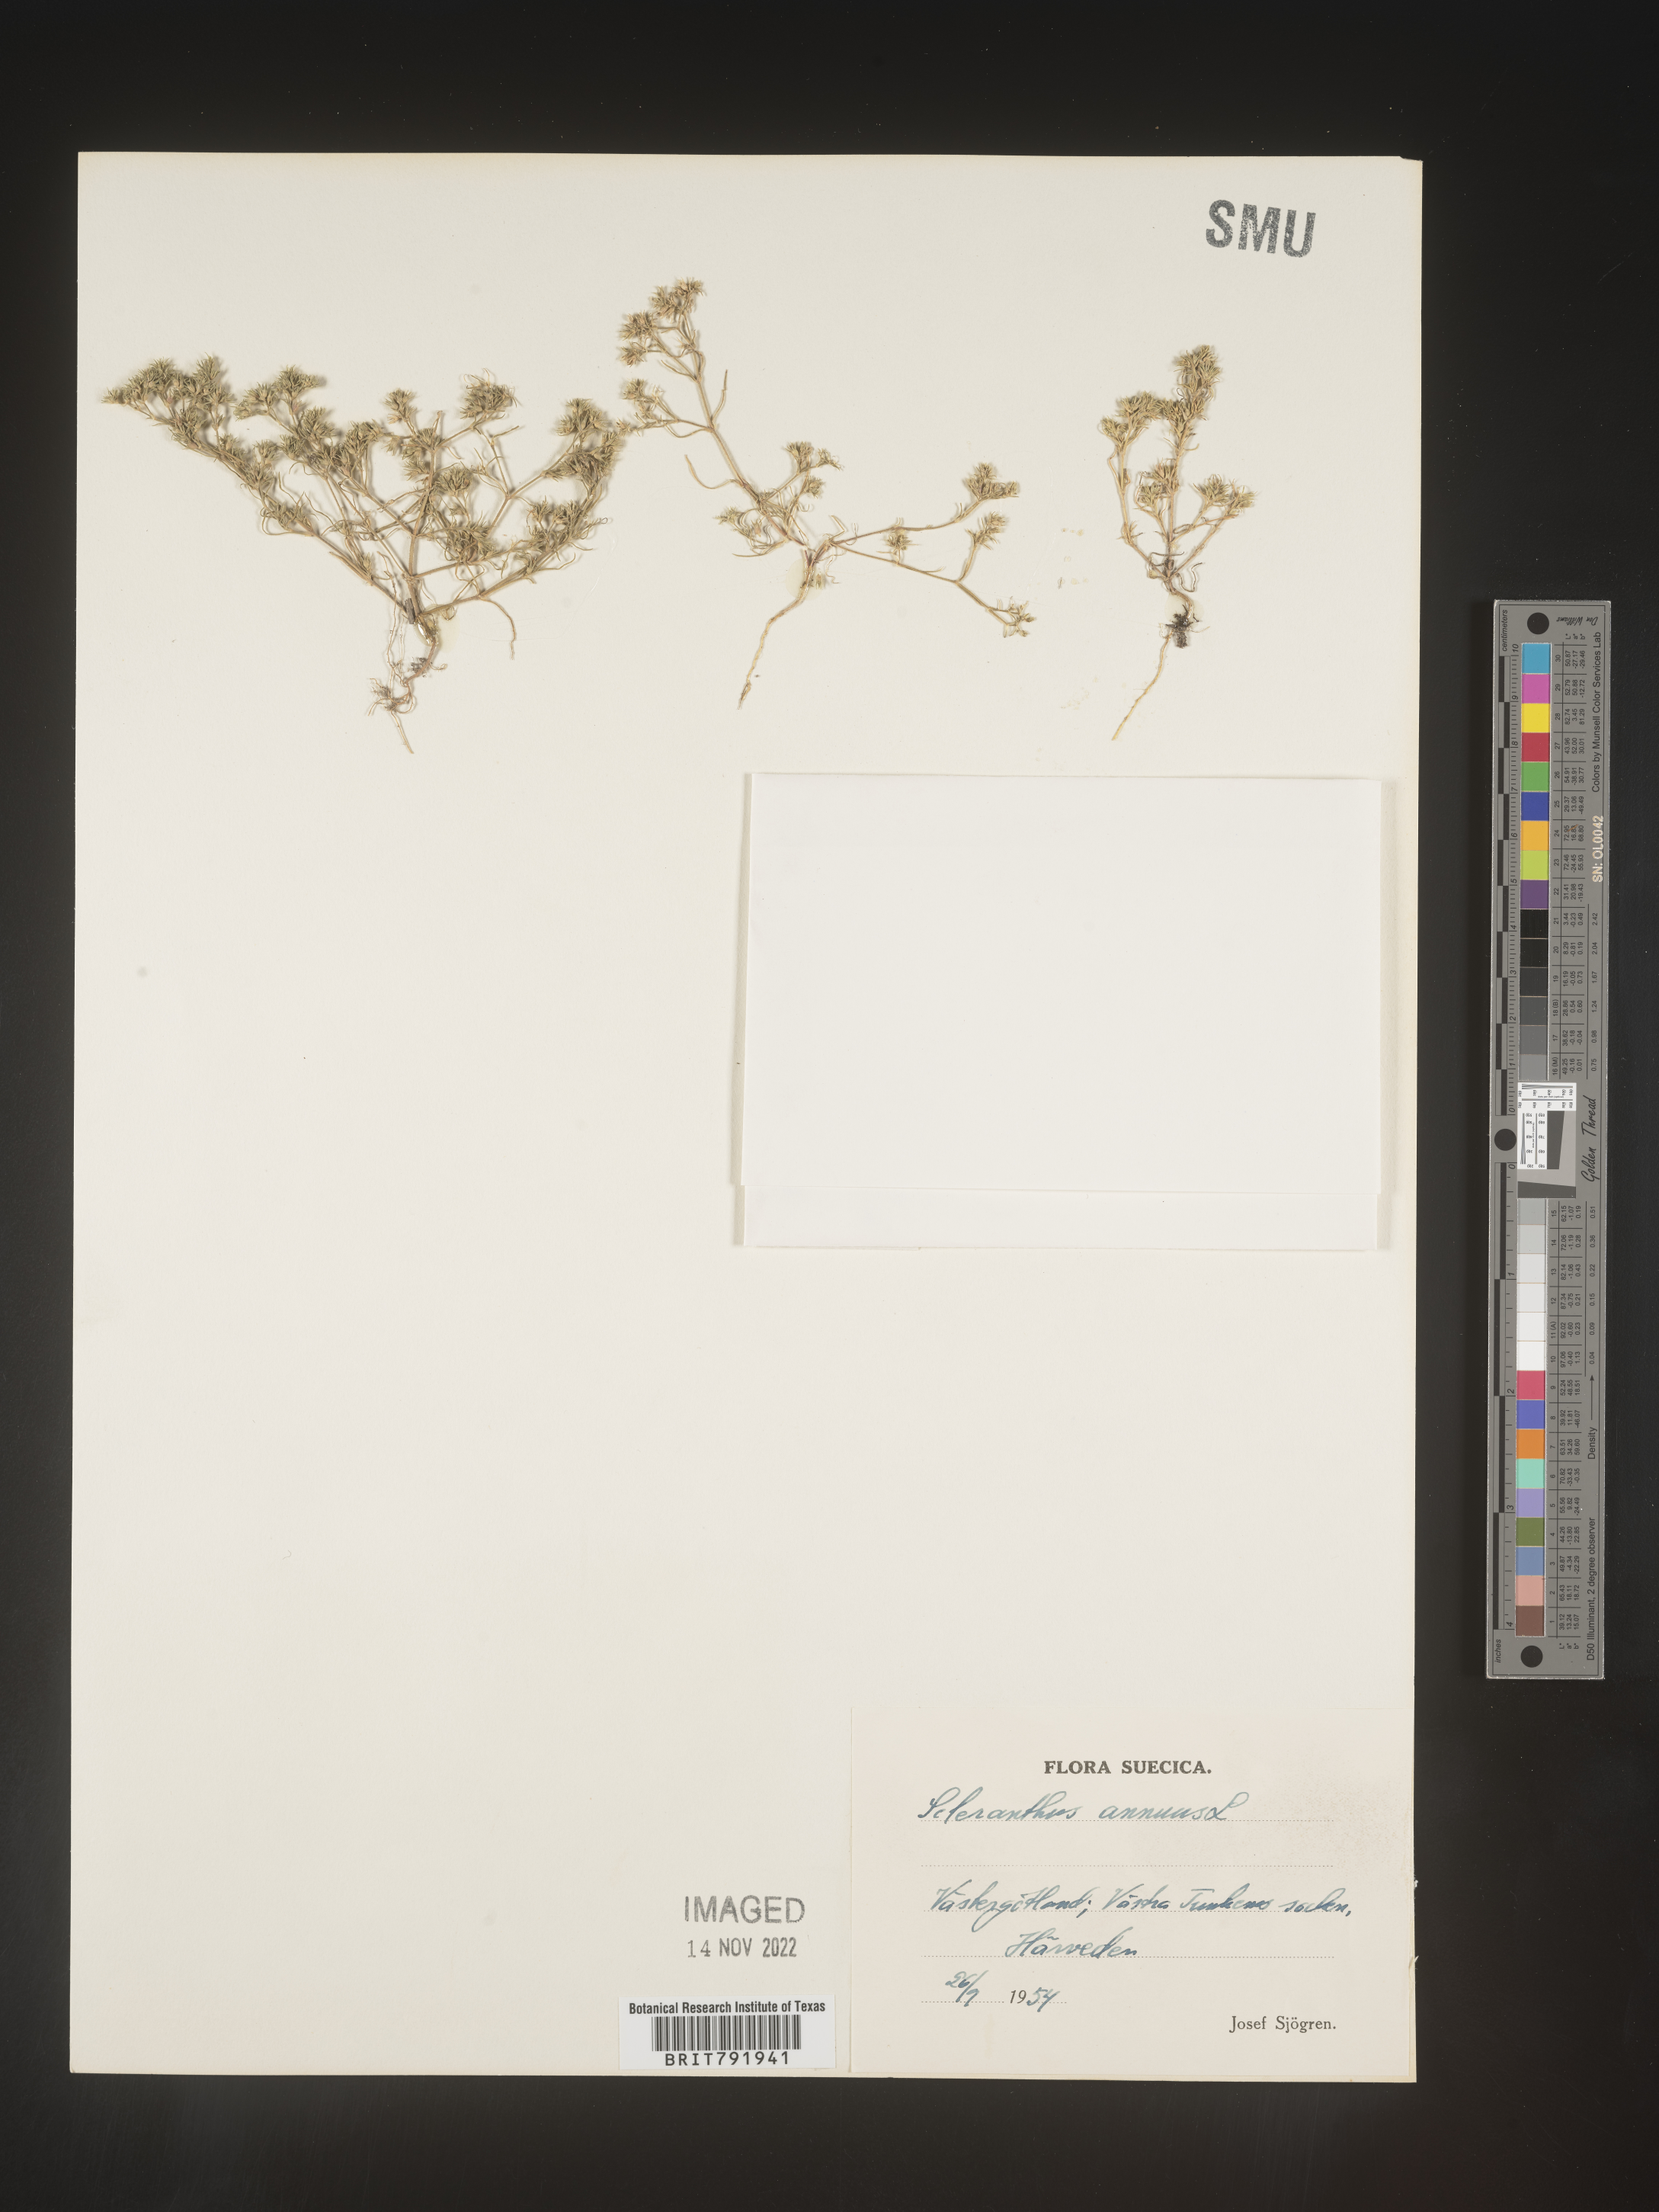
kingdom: Plantae
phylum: Tracheophyta
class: Magnoliopsida
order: Caryophyllales
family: Caryophyllaceae
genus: Scleranthus
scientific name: Scleranthus
